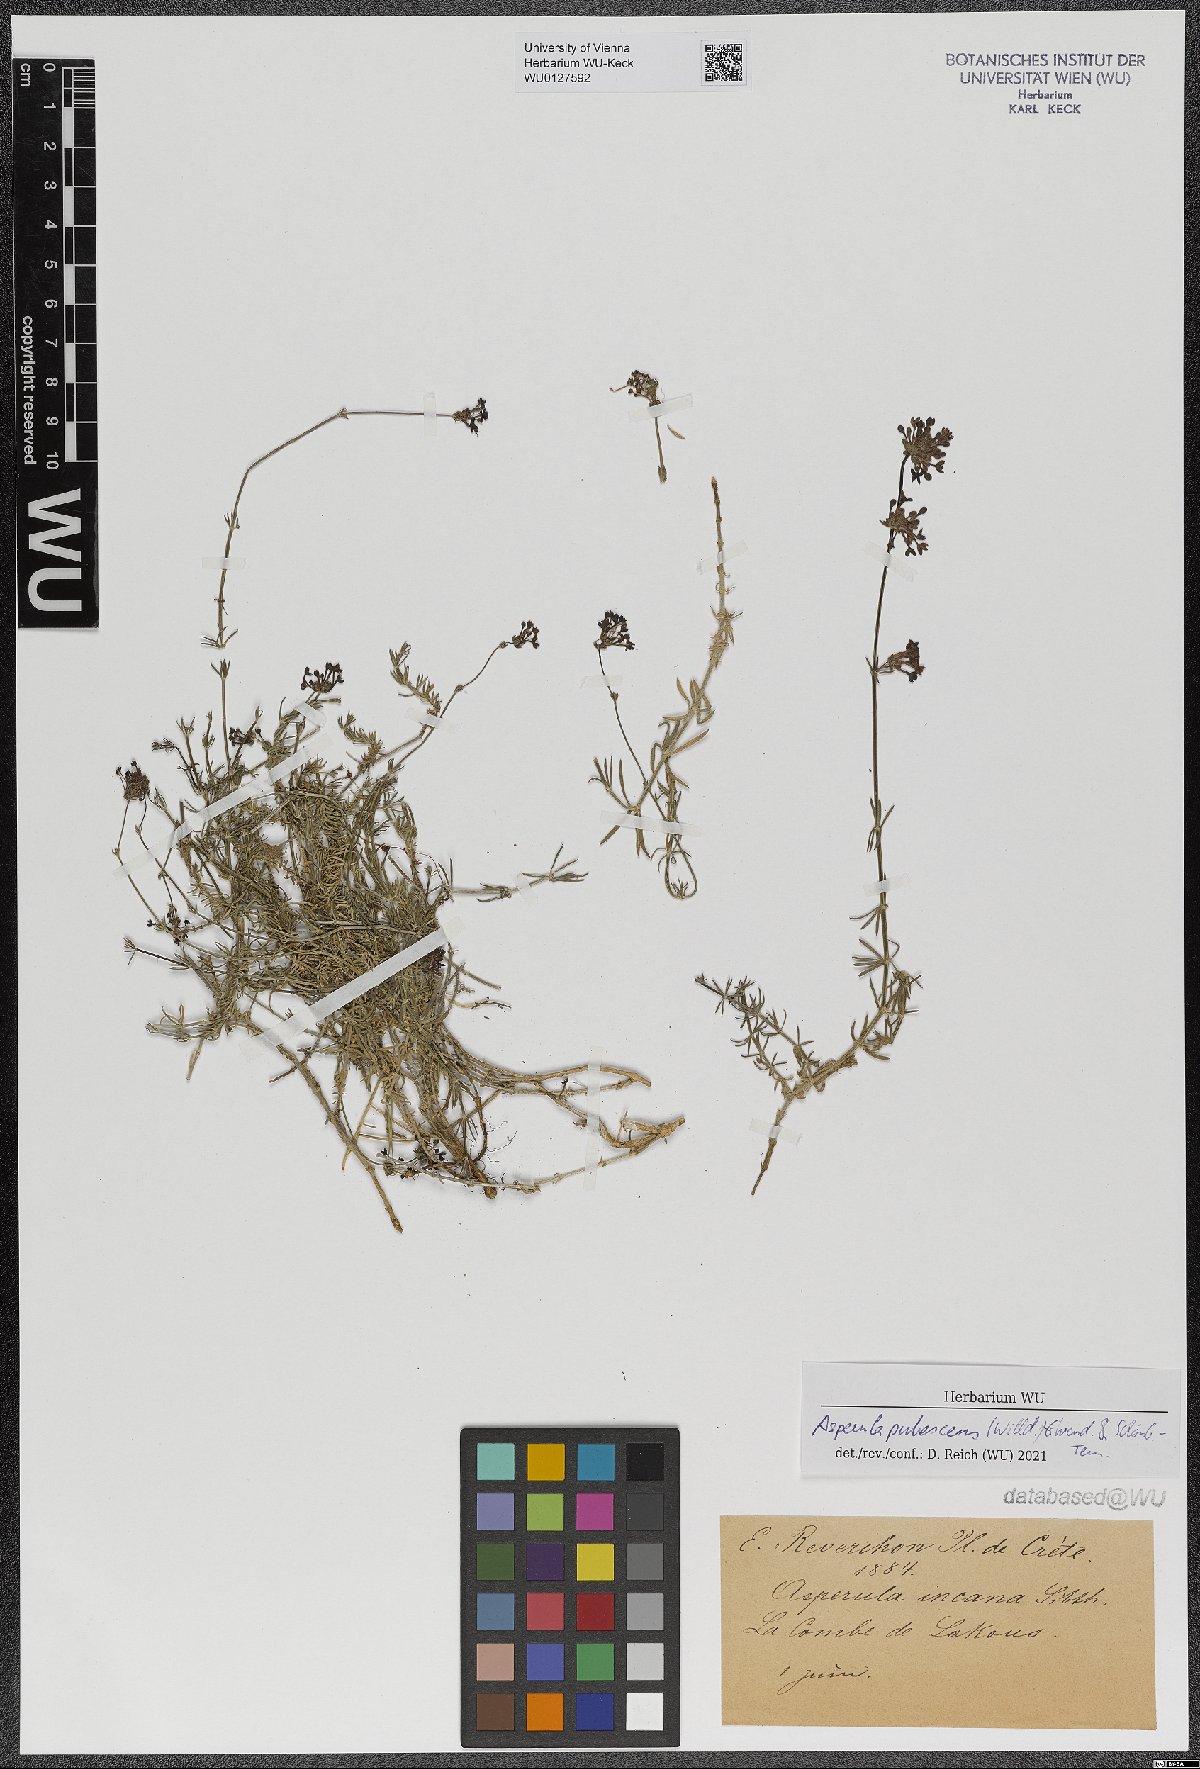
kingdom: Plantae
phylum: Tracheophyta
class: Magnoliopsida
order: Gentianales
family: Rubiaceae
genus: Hexaphylla
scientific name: Hexaphylla pubescens
